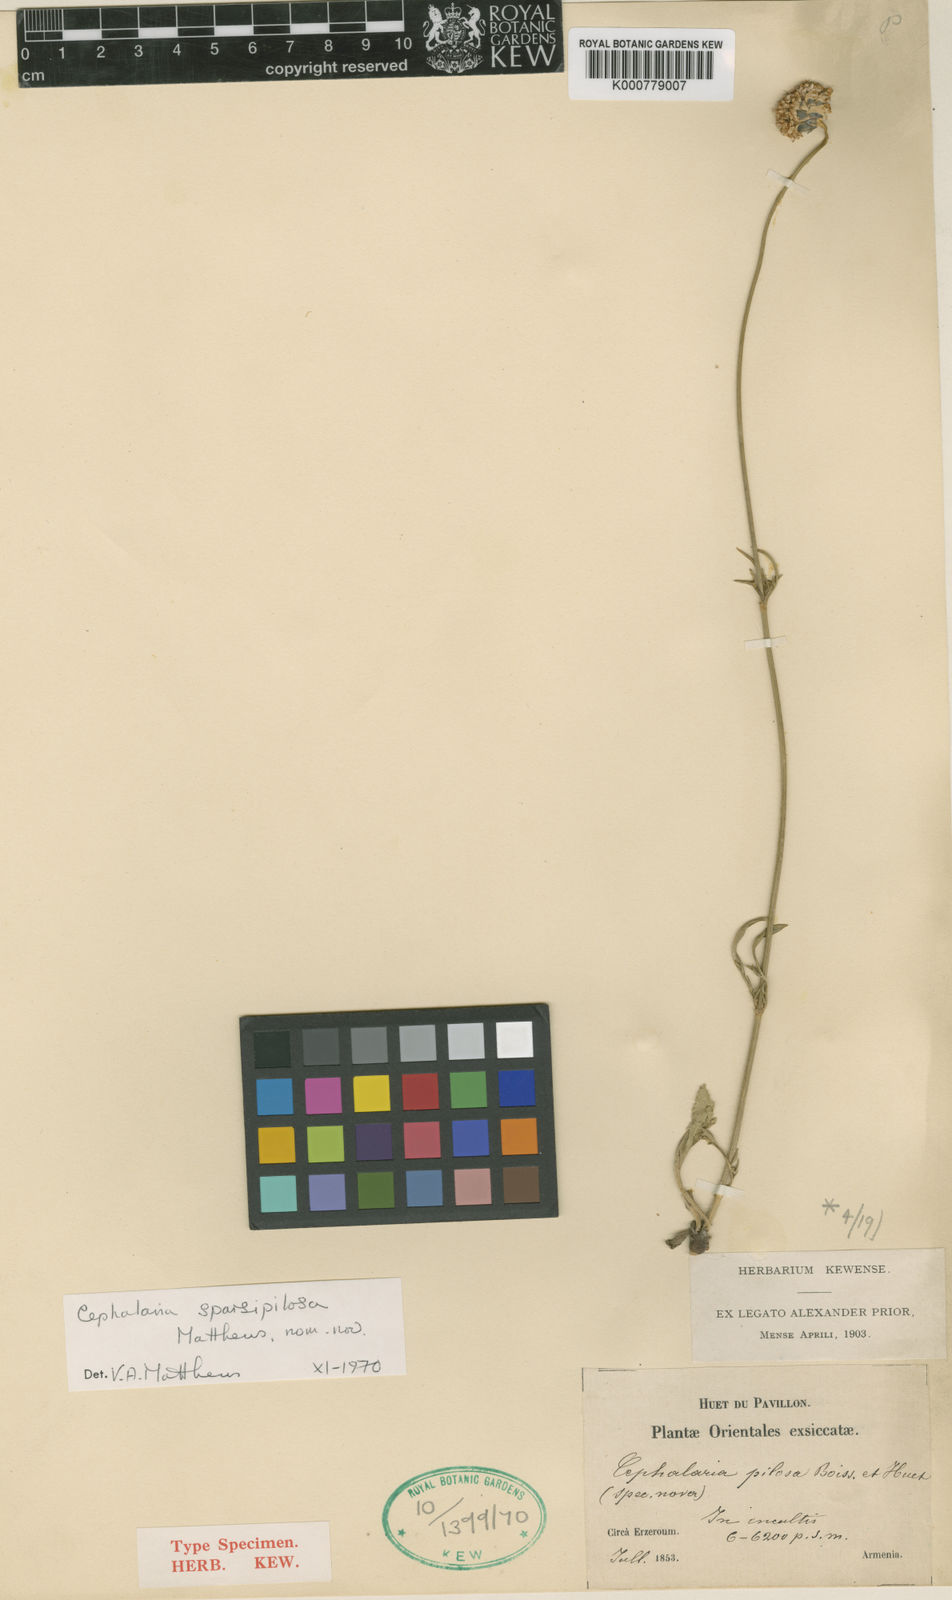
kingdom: Plantae
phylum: Tracheophyta
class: Magnoliopsida
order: Dipsacales
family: Caprifoliaceae
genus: Cephalaria
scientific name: Cephalaria sparsipilosa
